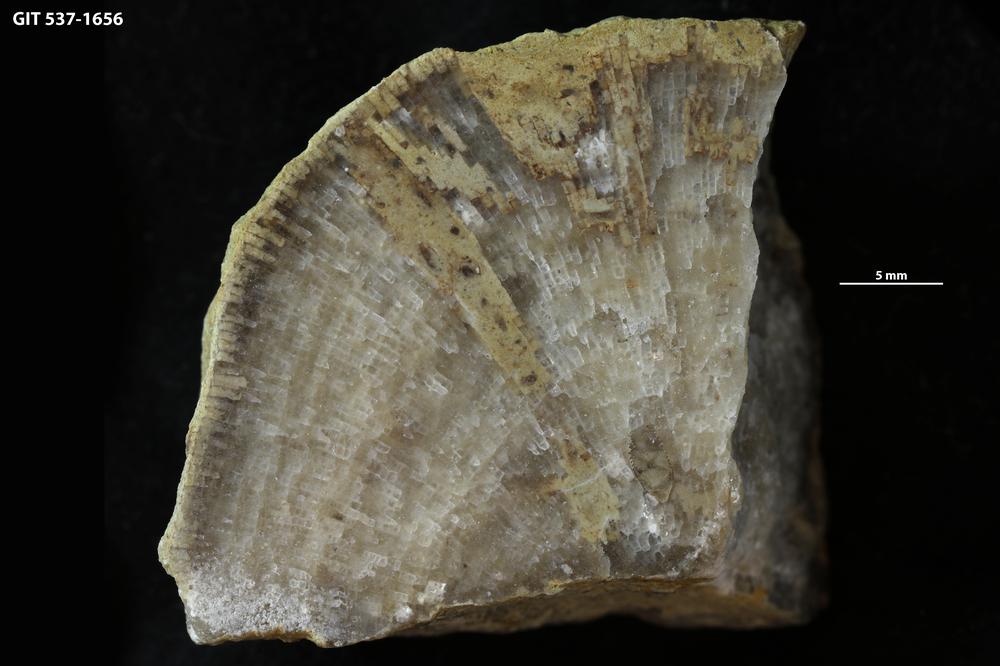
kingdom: Animalia
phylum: Bryozoa
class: Stenolaemata
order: Esthonioporata
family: Esthonioporidae
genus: Esthoniopora
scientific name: Esthoniopora communis
